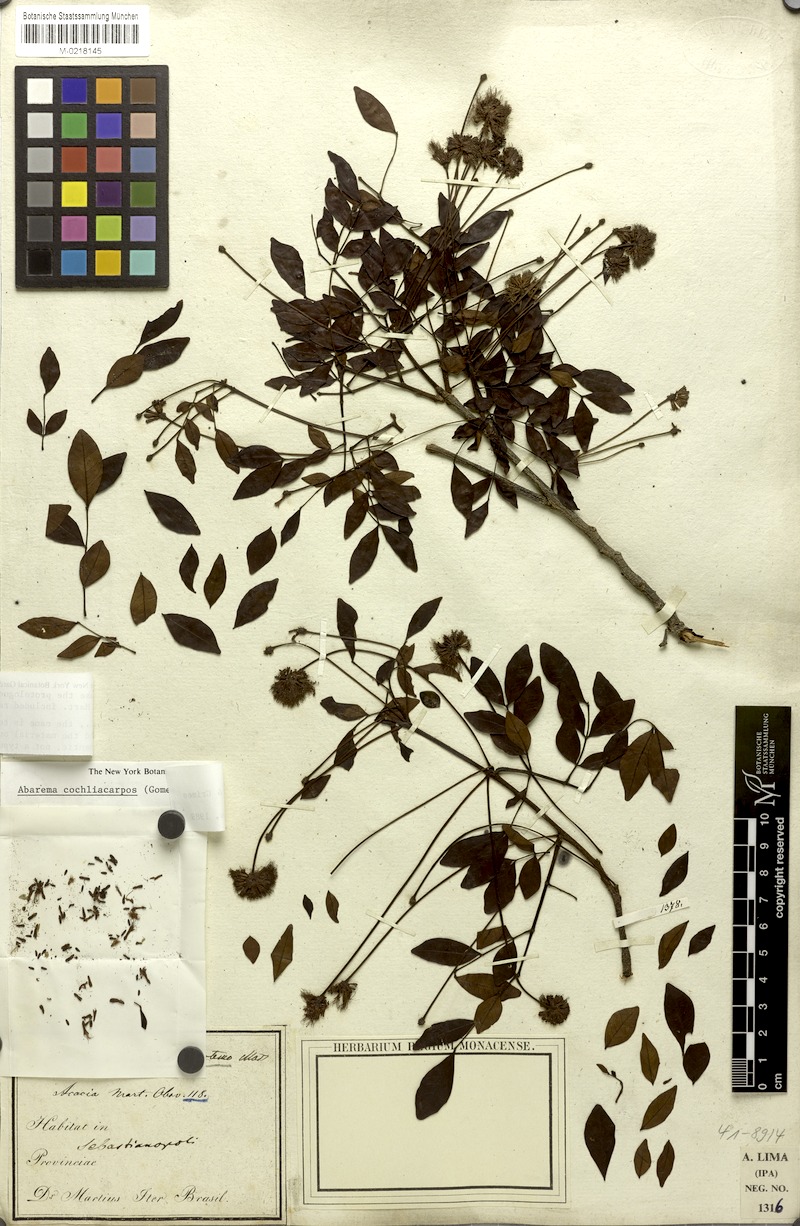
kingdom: Plantae
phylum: Tracheophyta
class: Magnoliopsida
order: Fabales
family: Fabaceae
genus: Abarema
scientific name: Abarema cochliocarpos
